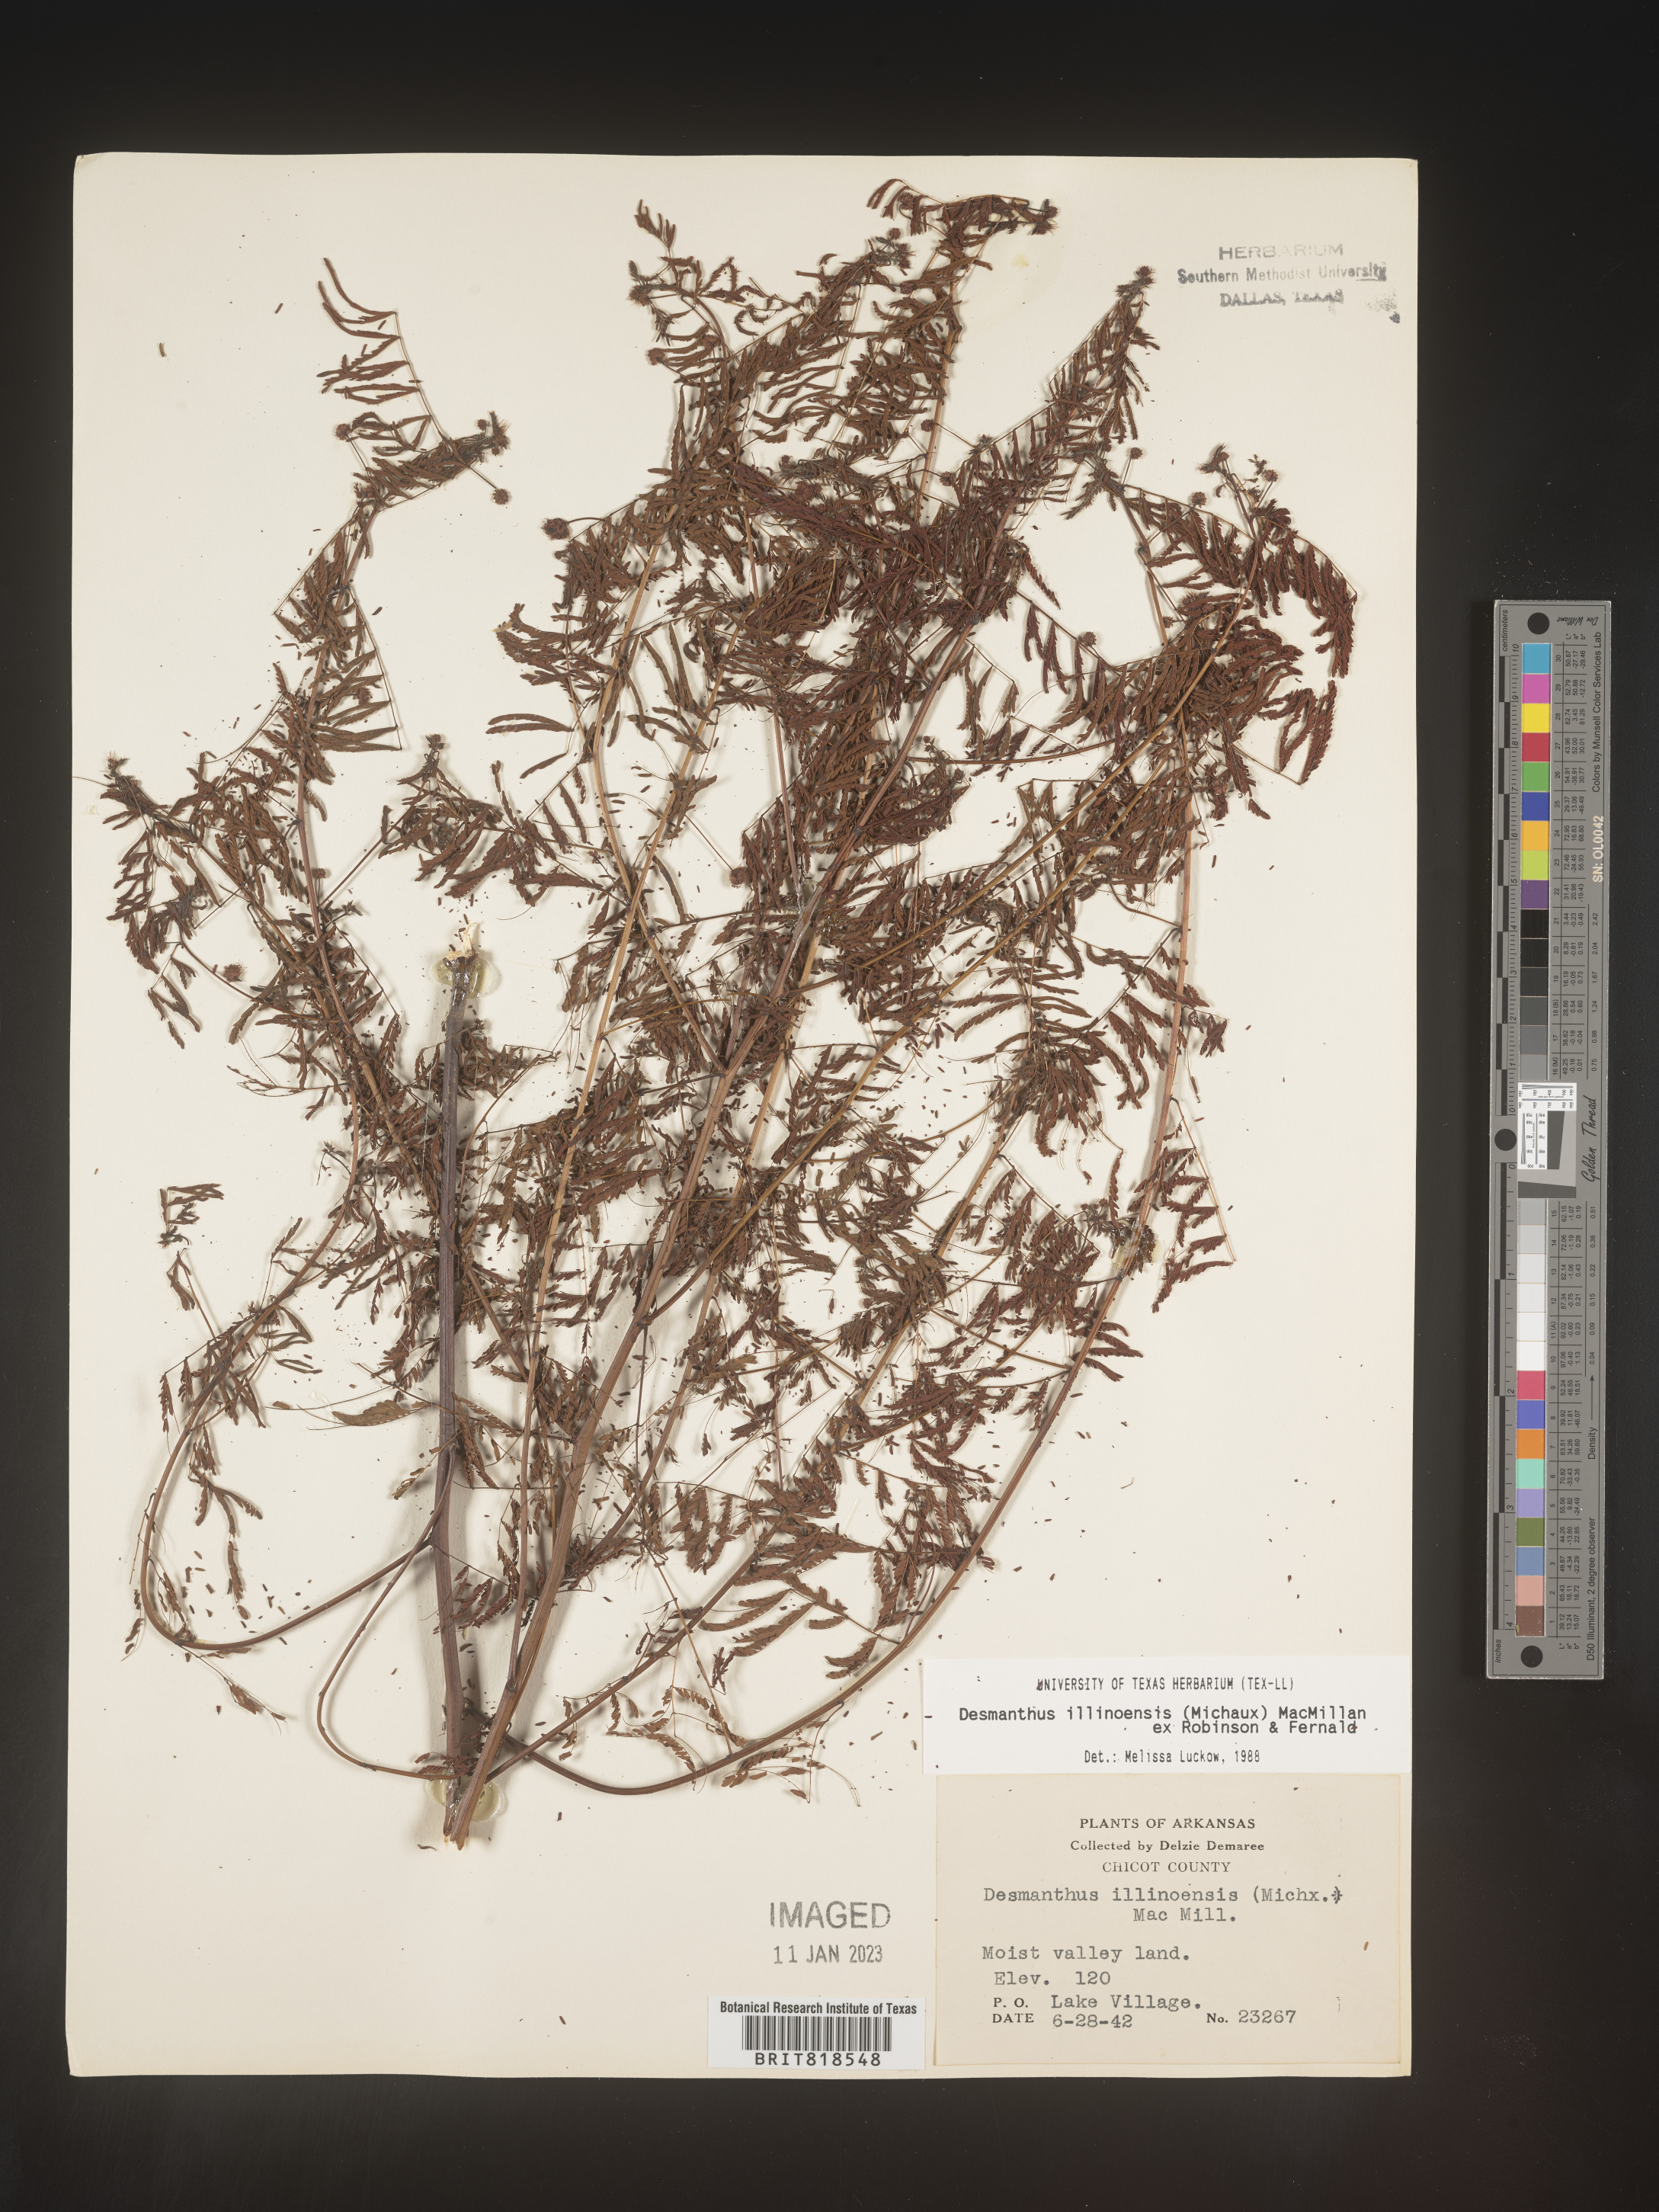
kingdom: Plantae
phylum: Tracheophyta
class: Magnoliopsida
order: Fabales
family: Fabaceae
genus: Desmanthus
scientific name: Desmanthus illinoensis
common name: Illinois bundle-flower
